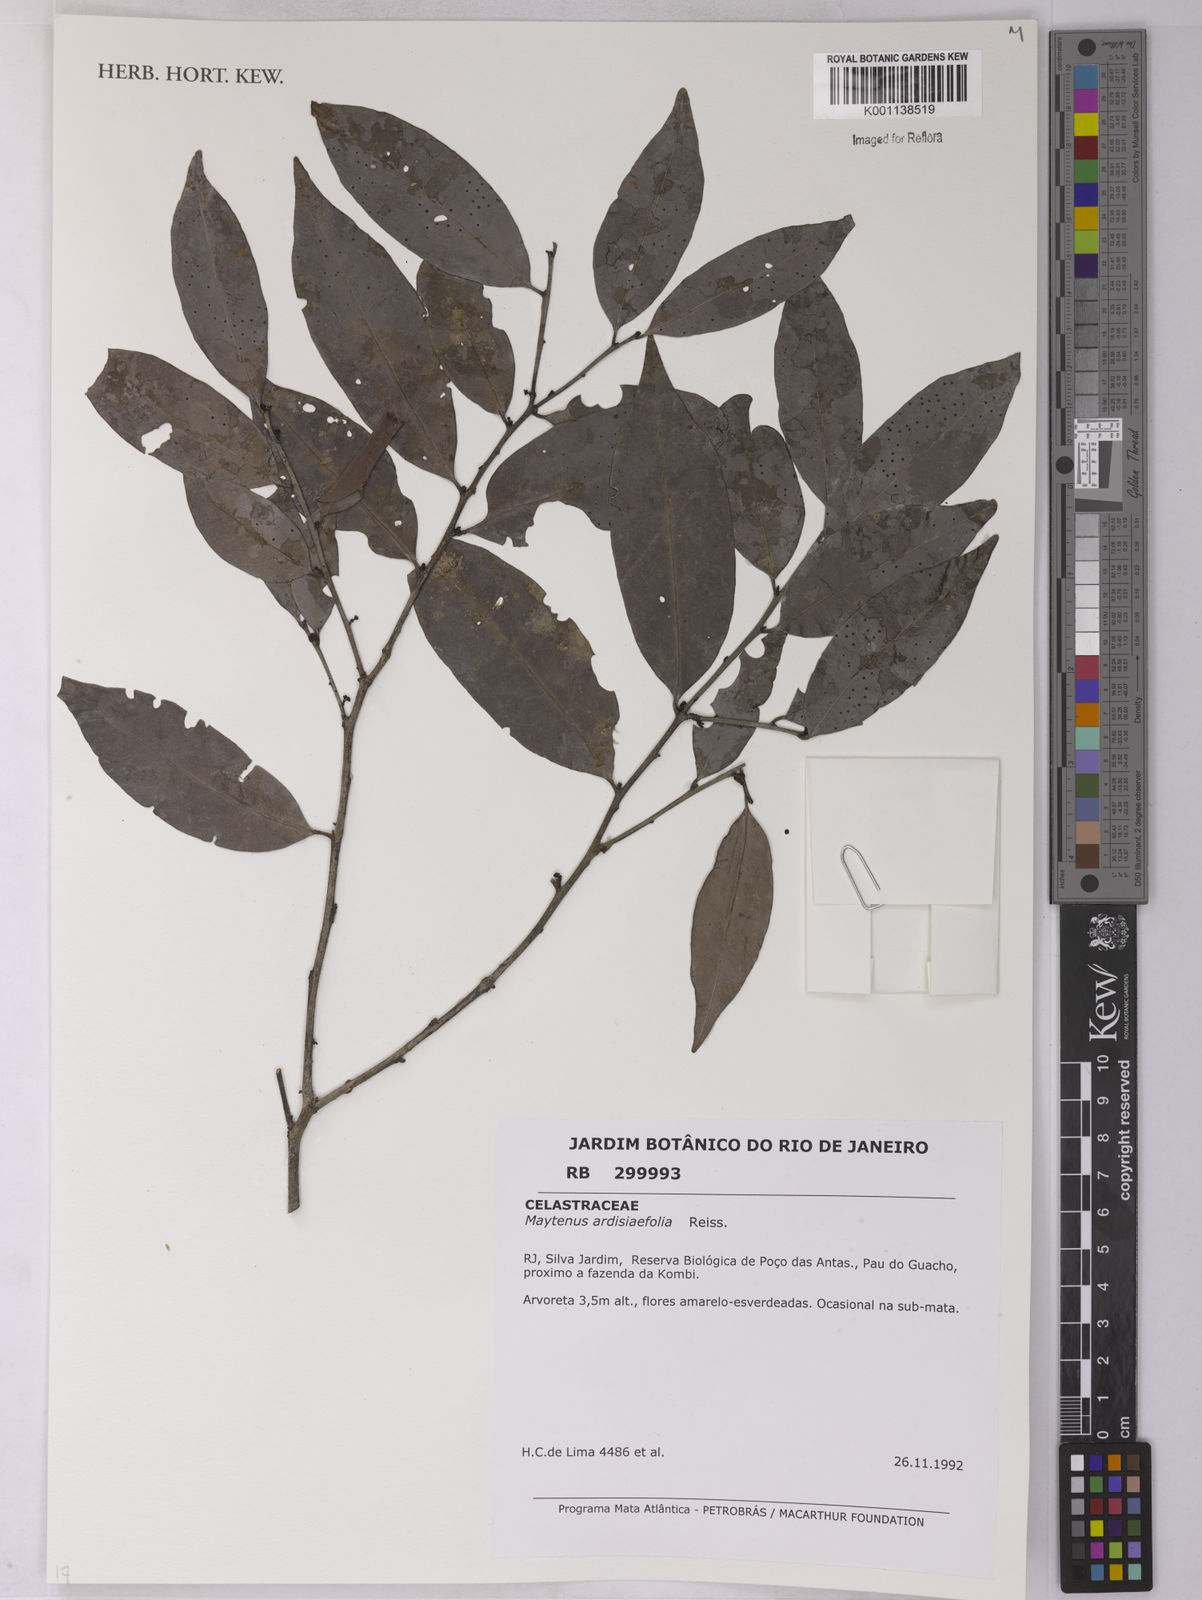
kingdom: Plantae
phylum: Tracheophyta
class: Magnoliopsida
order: Celastrales
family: Celastraceae
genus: Monteverdia
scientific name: Monteverdia ardisiifolia
